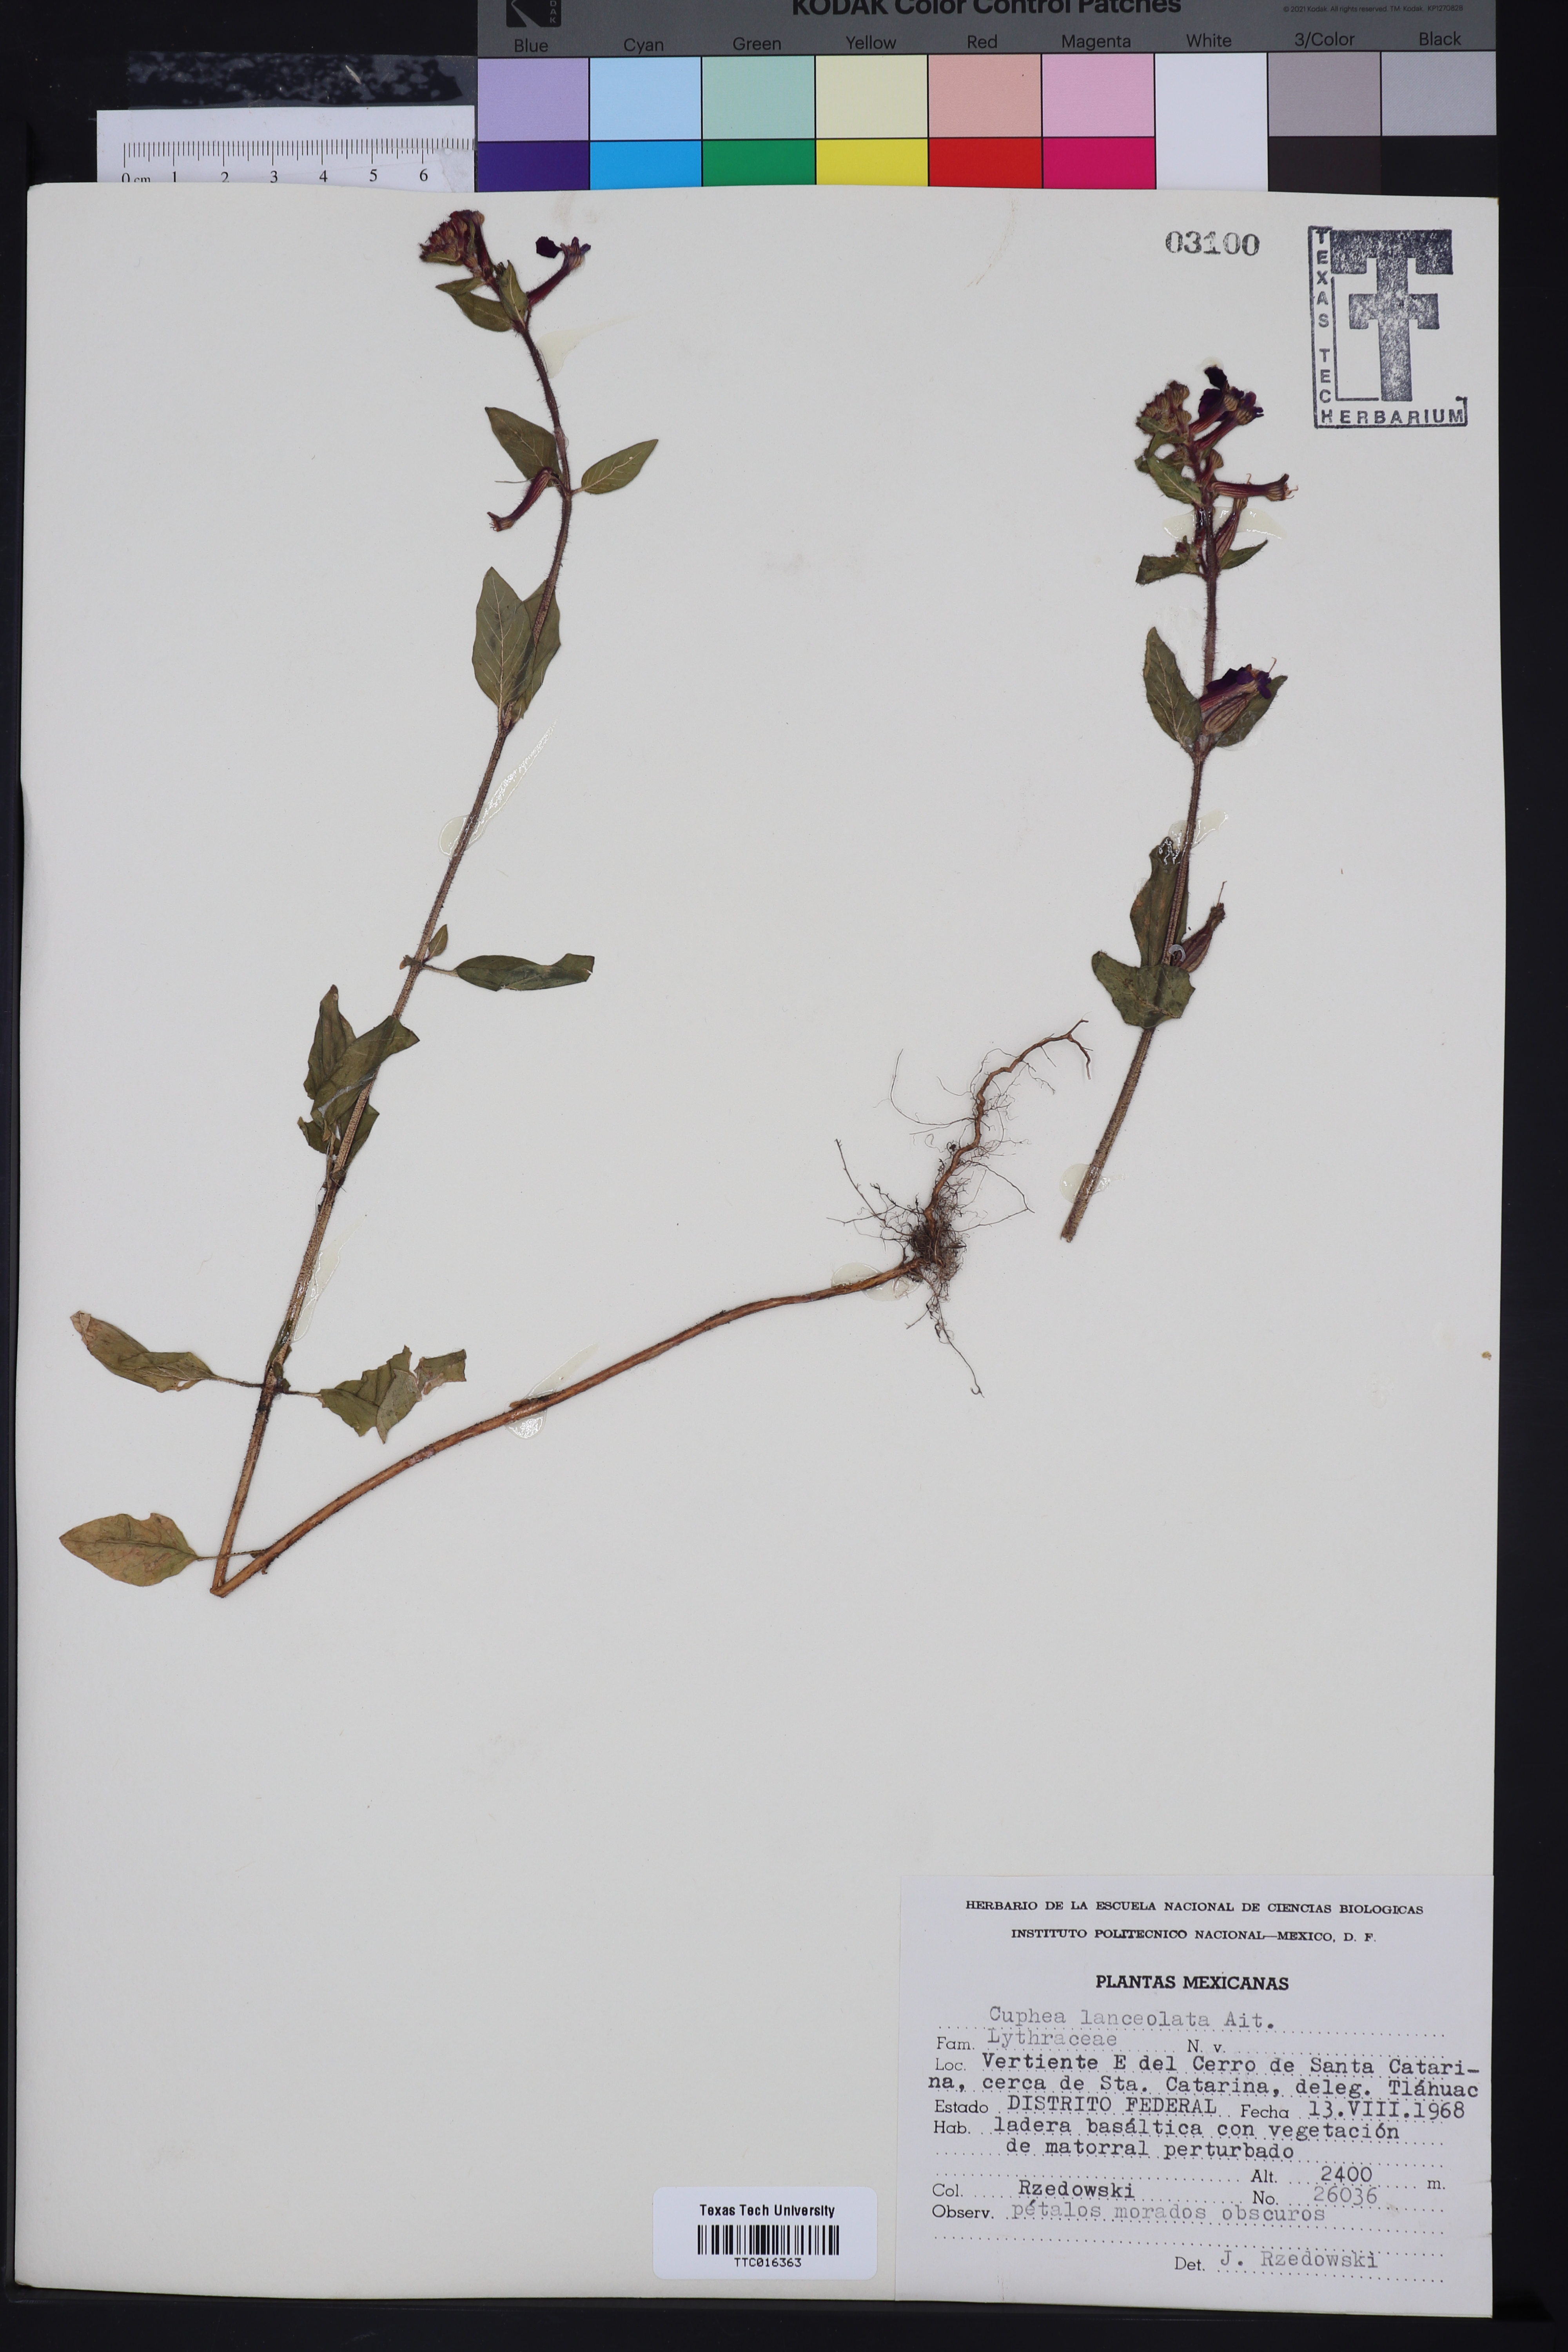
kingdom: Plantae
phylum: Tracheophyta
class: Magnoliopsida
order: Myrtales
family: Lythraceae
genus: Cuphea
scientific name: Cuphea lanceolata
